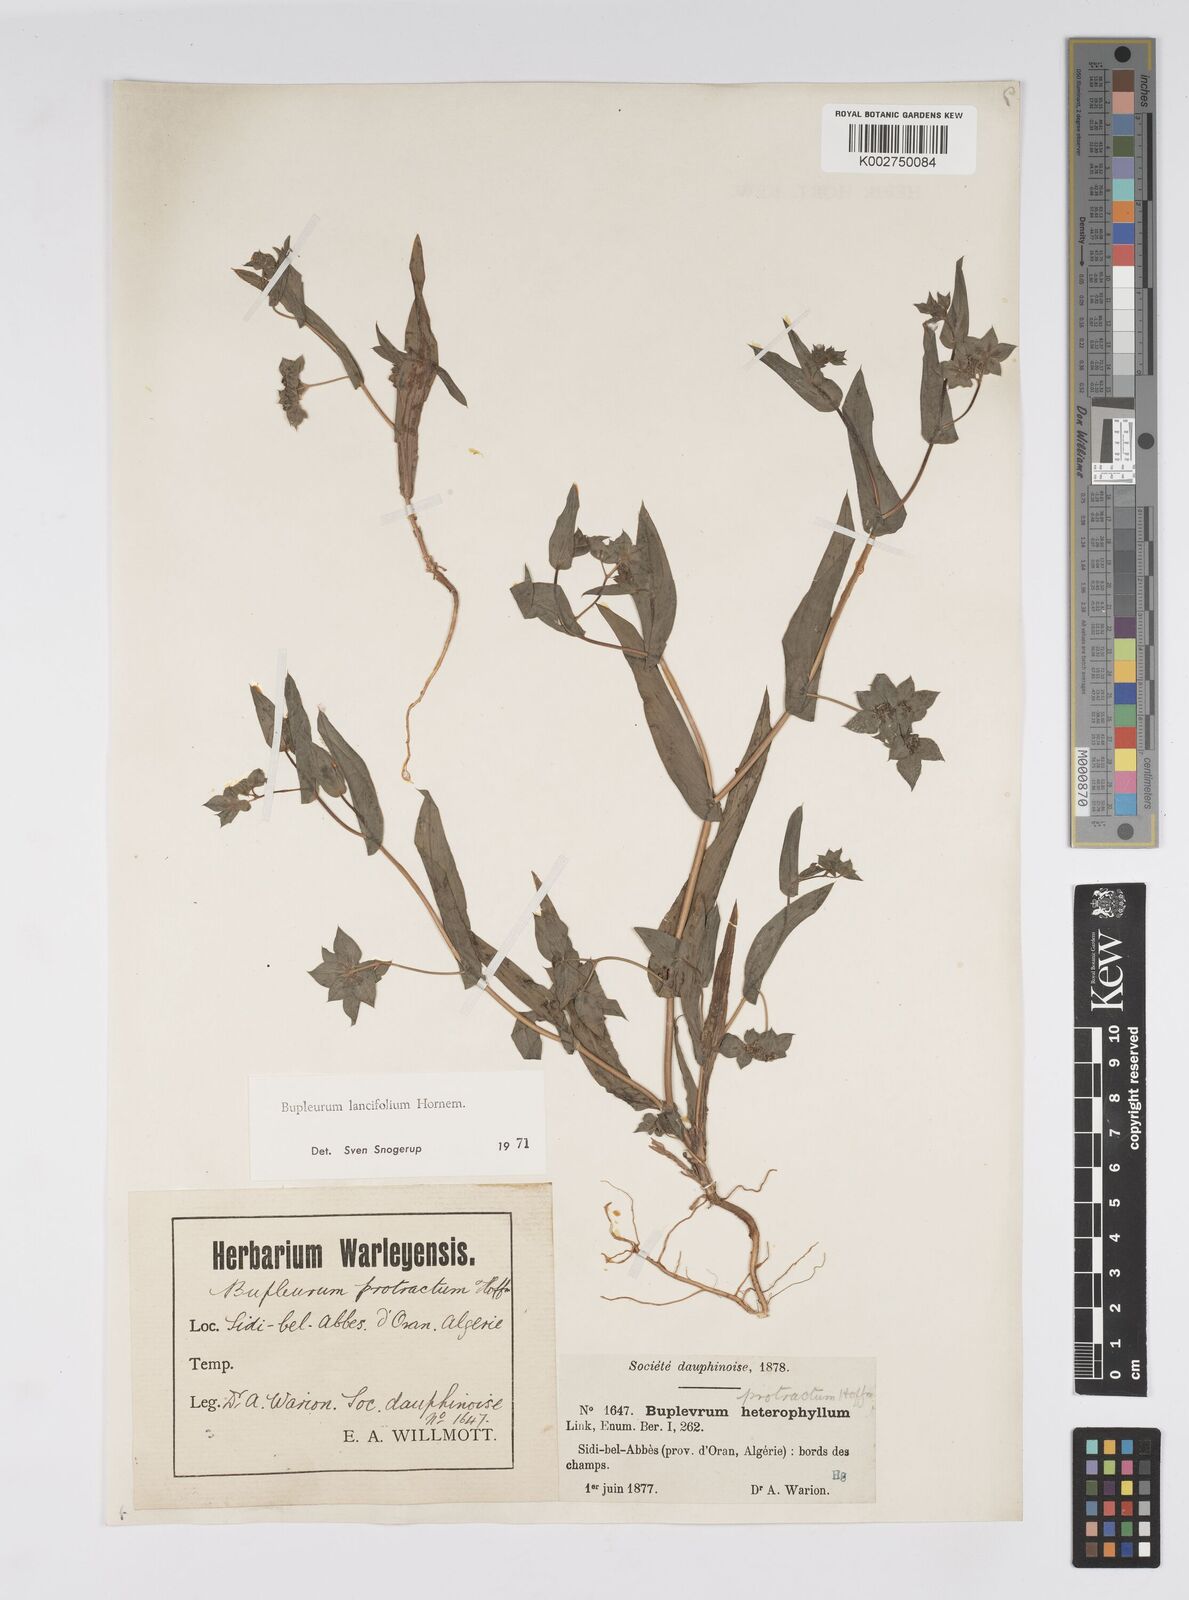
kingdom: Plantae
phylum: Tracheophyta
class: Magnoliopsida
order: Apiales
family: Apiaceae
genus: Bupleurum
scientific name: Bupleurum lancifolium
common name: False thorow-wax
